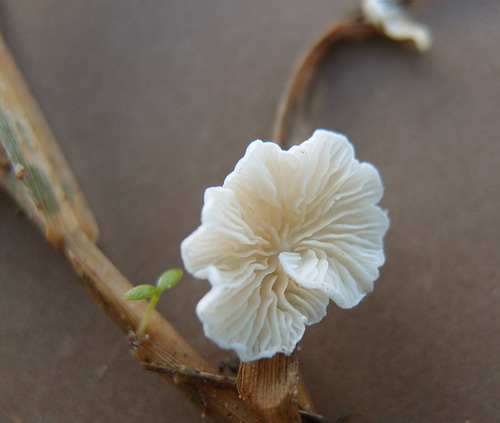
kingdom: Fungi
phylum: Basidiomycota
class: Agaricomycetes
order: Agaricales
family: Crepidotaceae
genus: Crepidotus
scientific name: Crepidotus luteolus
